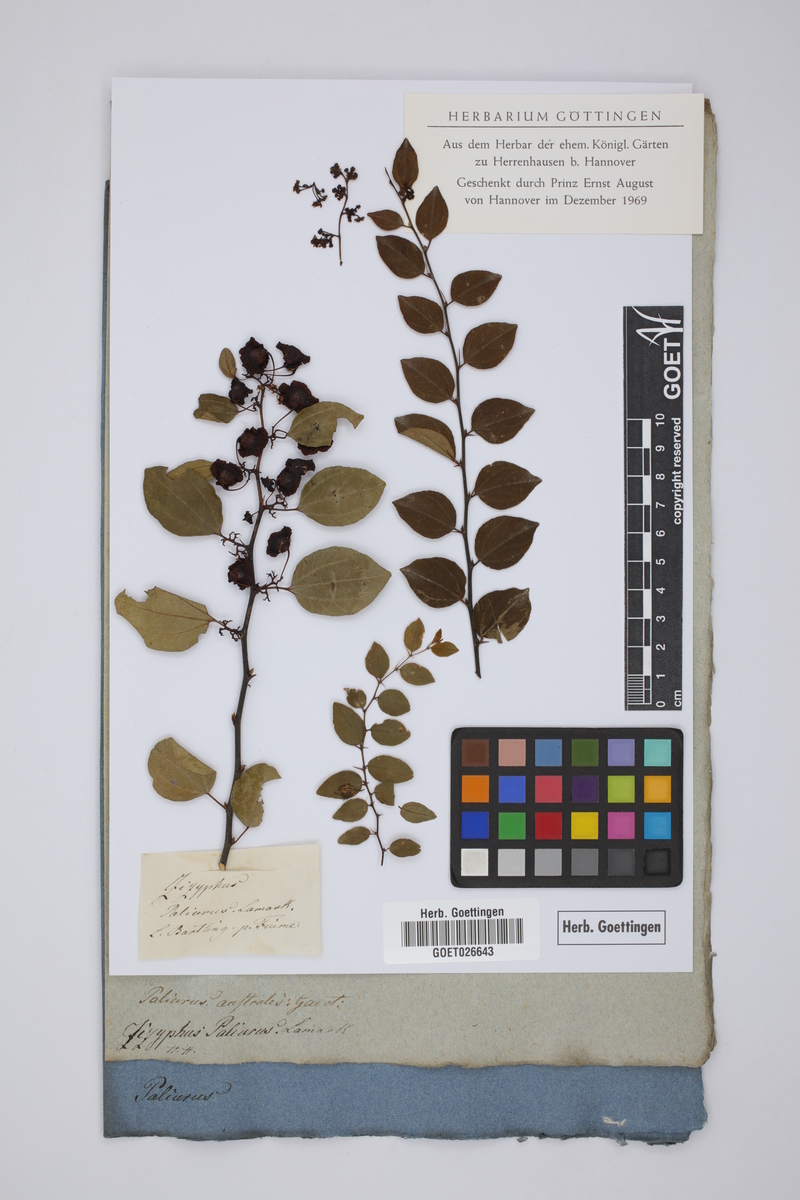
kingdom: Plantae
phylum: Tracheophyta
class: Magnoliopsida
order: Rosales
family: Rhamnaceae
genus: Paliurus
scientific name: Paliurus spina-christi
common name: Jeruselem thorn
